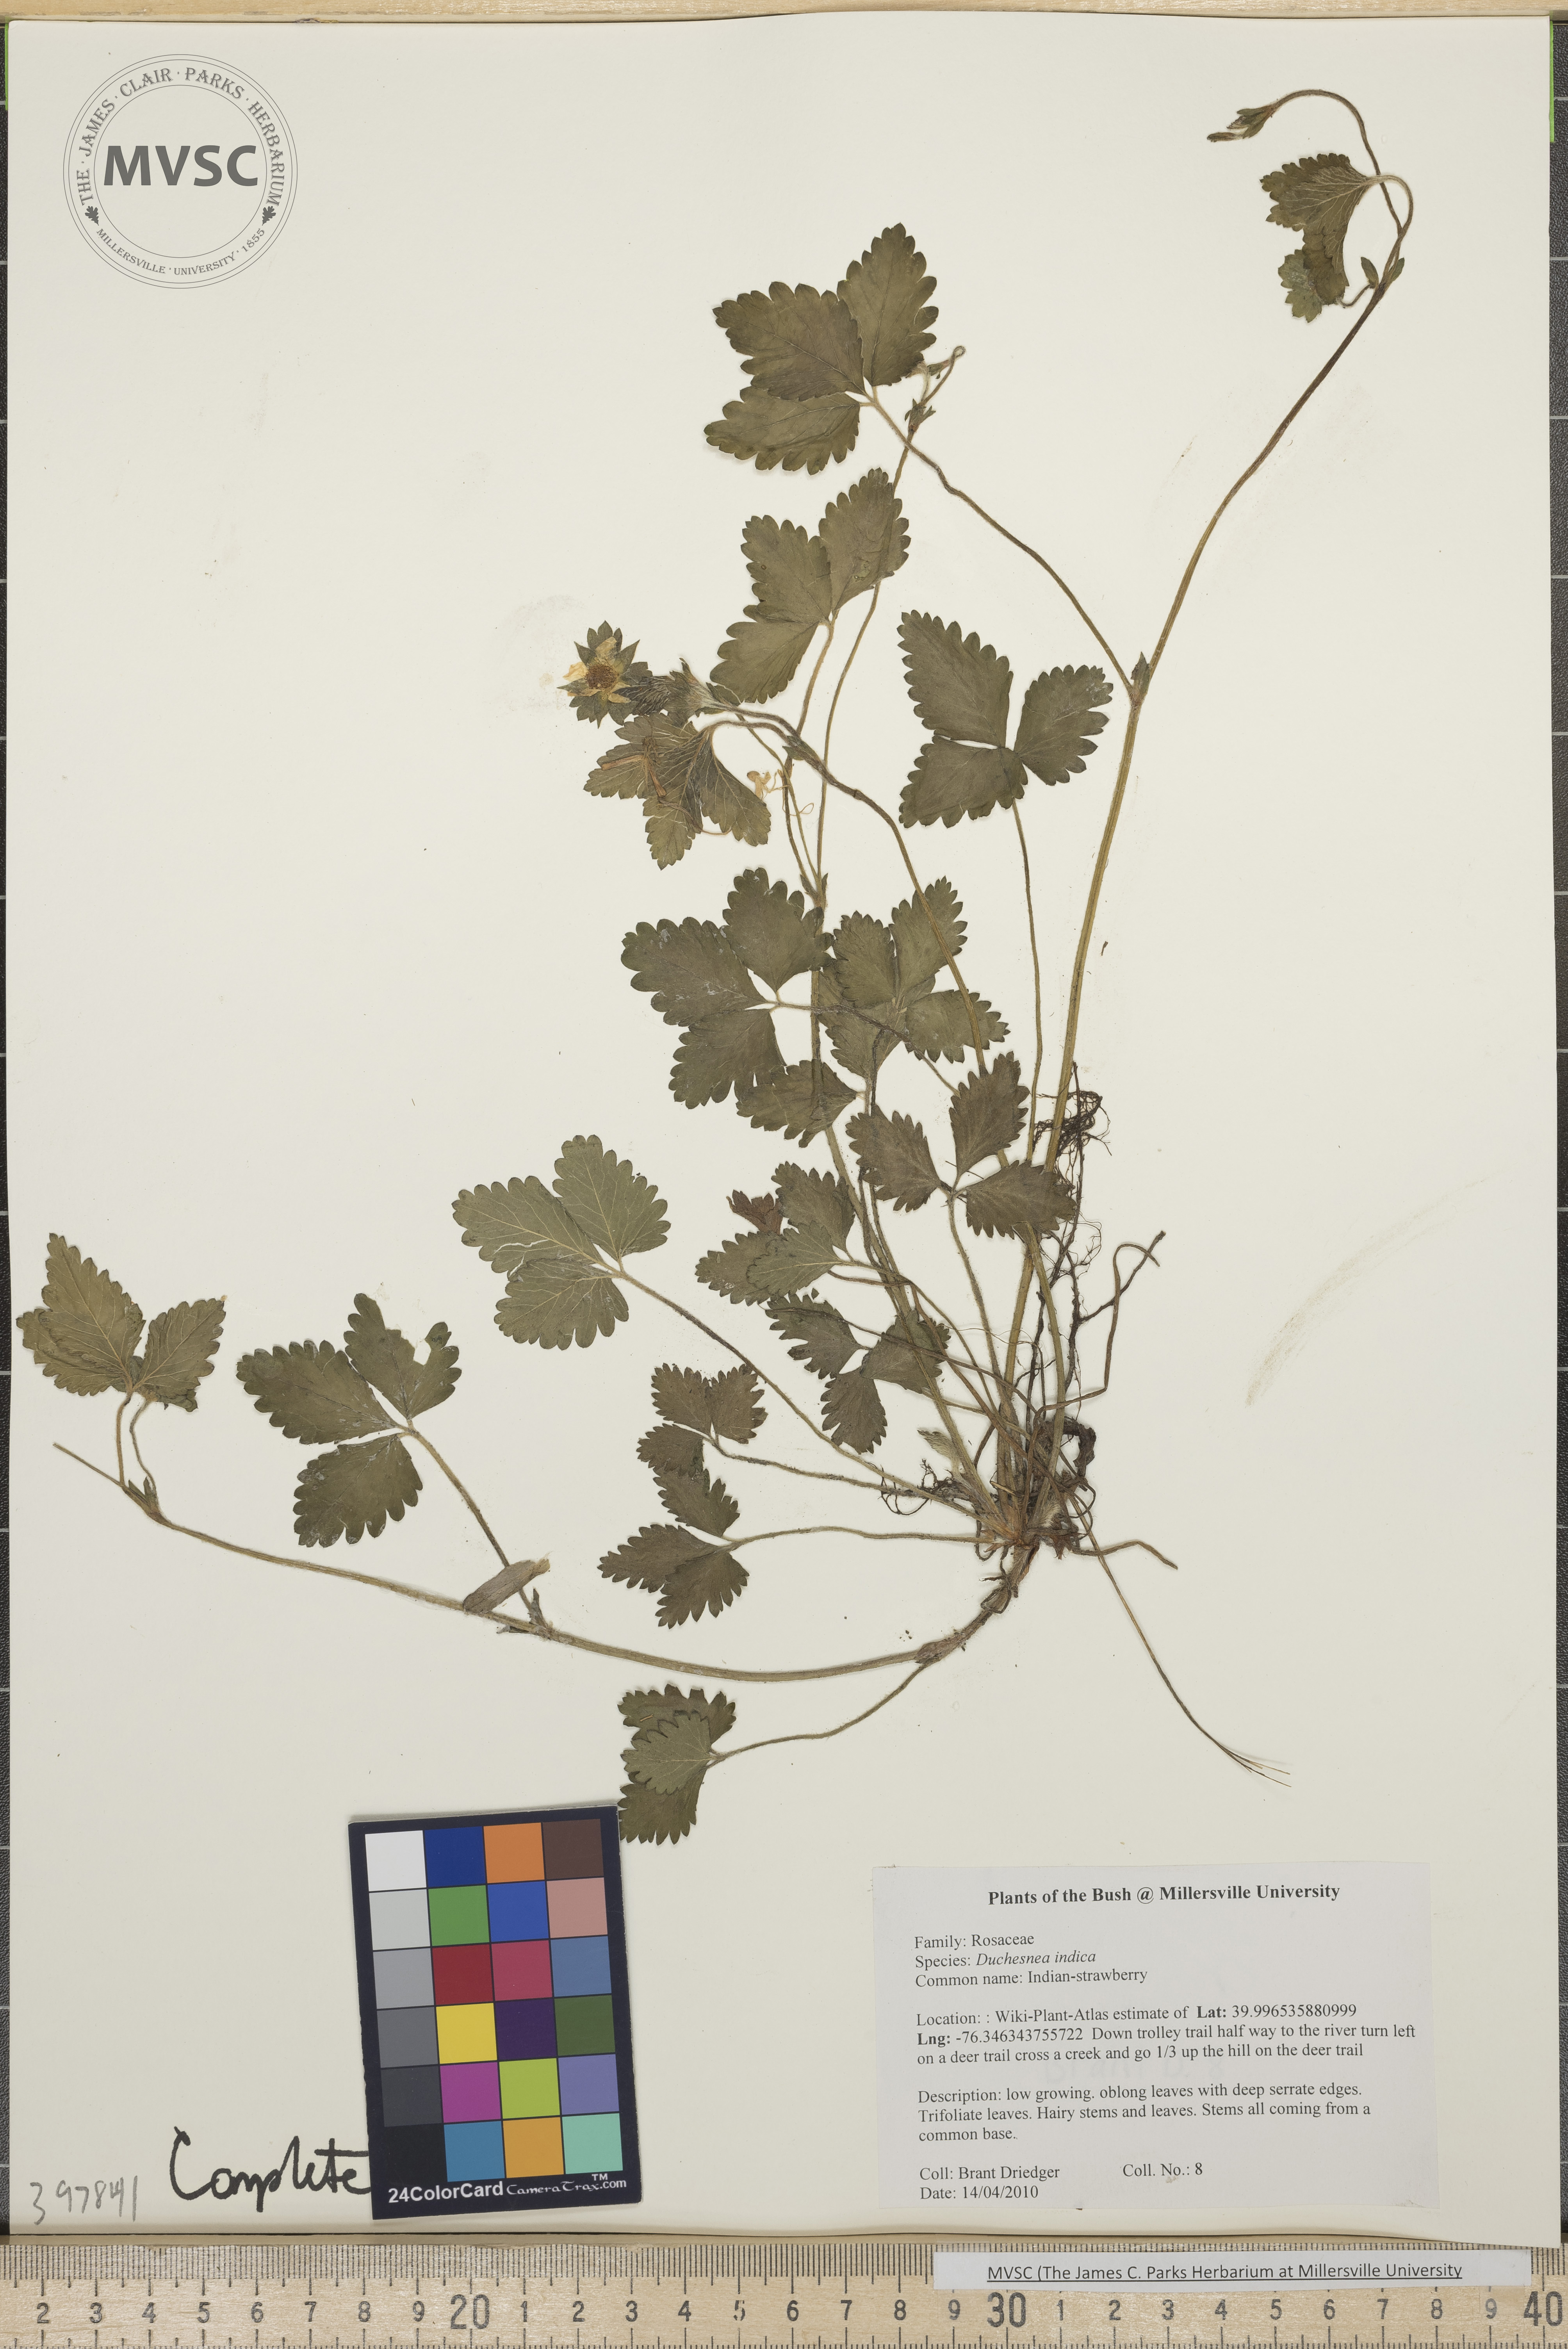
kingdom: Plantae
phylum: Tracheophyta
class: Magnoliopsida
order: Rosales
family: Rosaceae
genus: Potentilla
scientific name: Potentilla indica
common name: Indian strawberry
